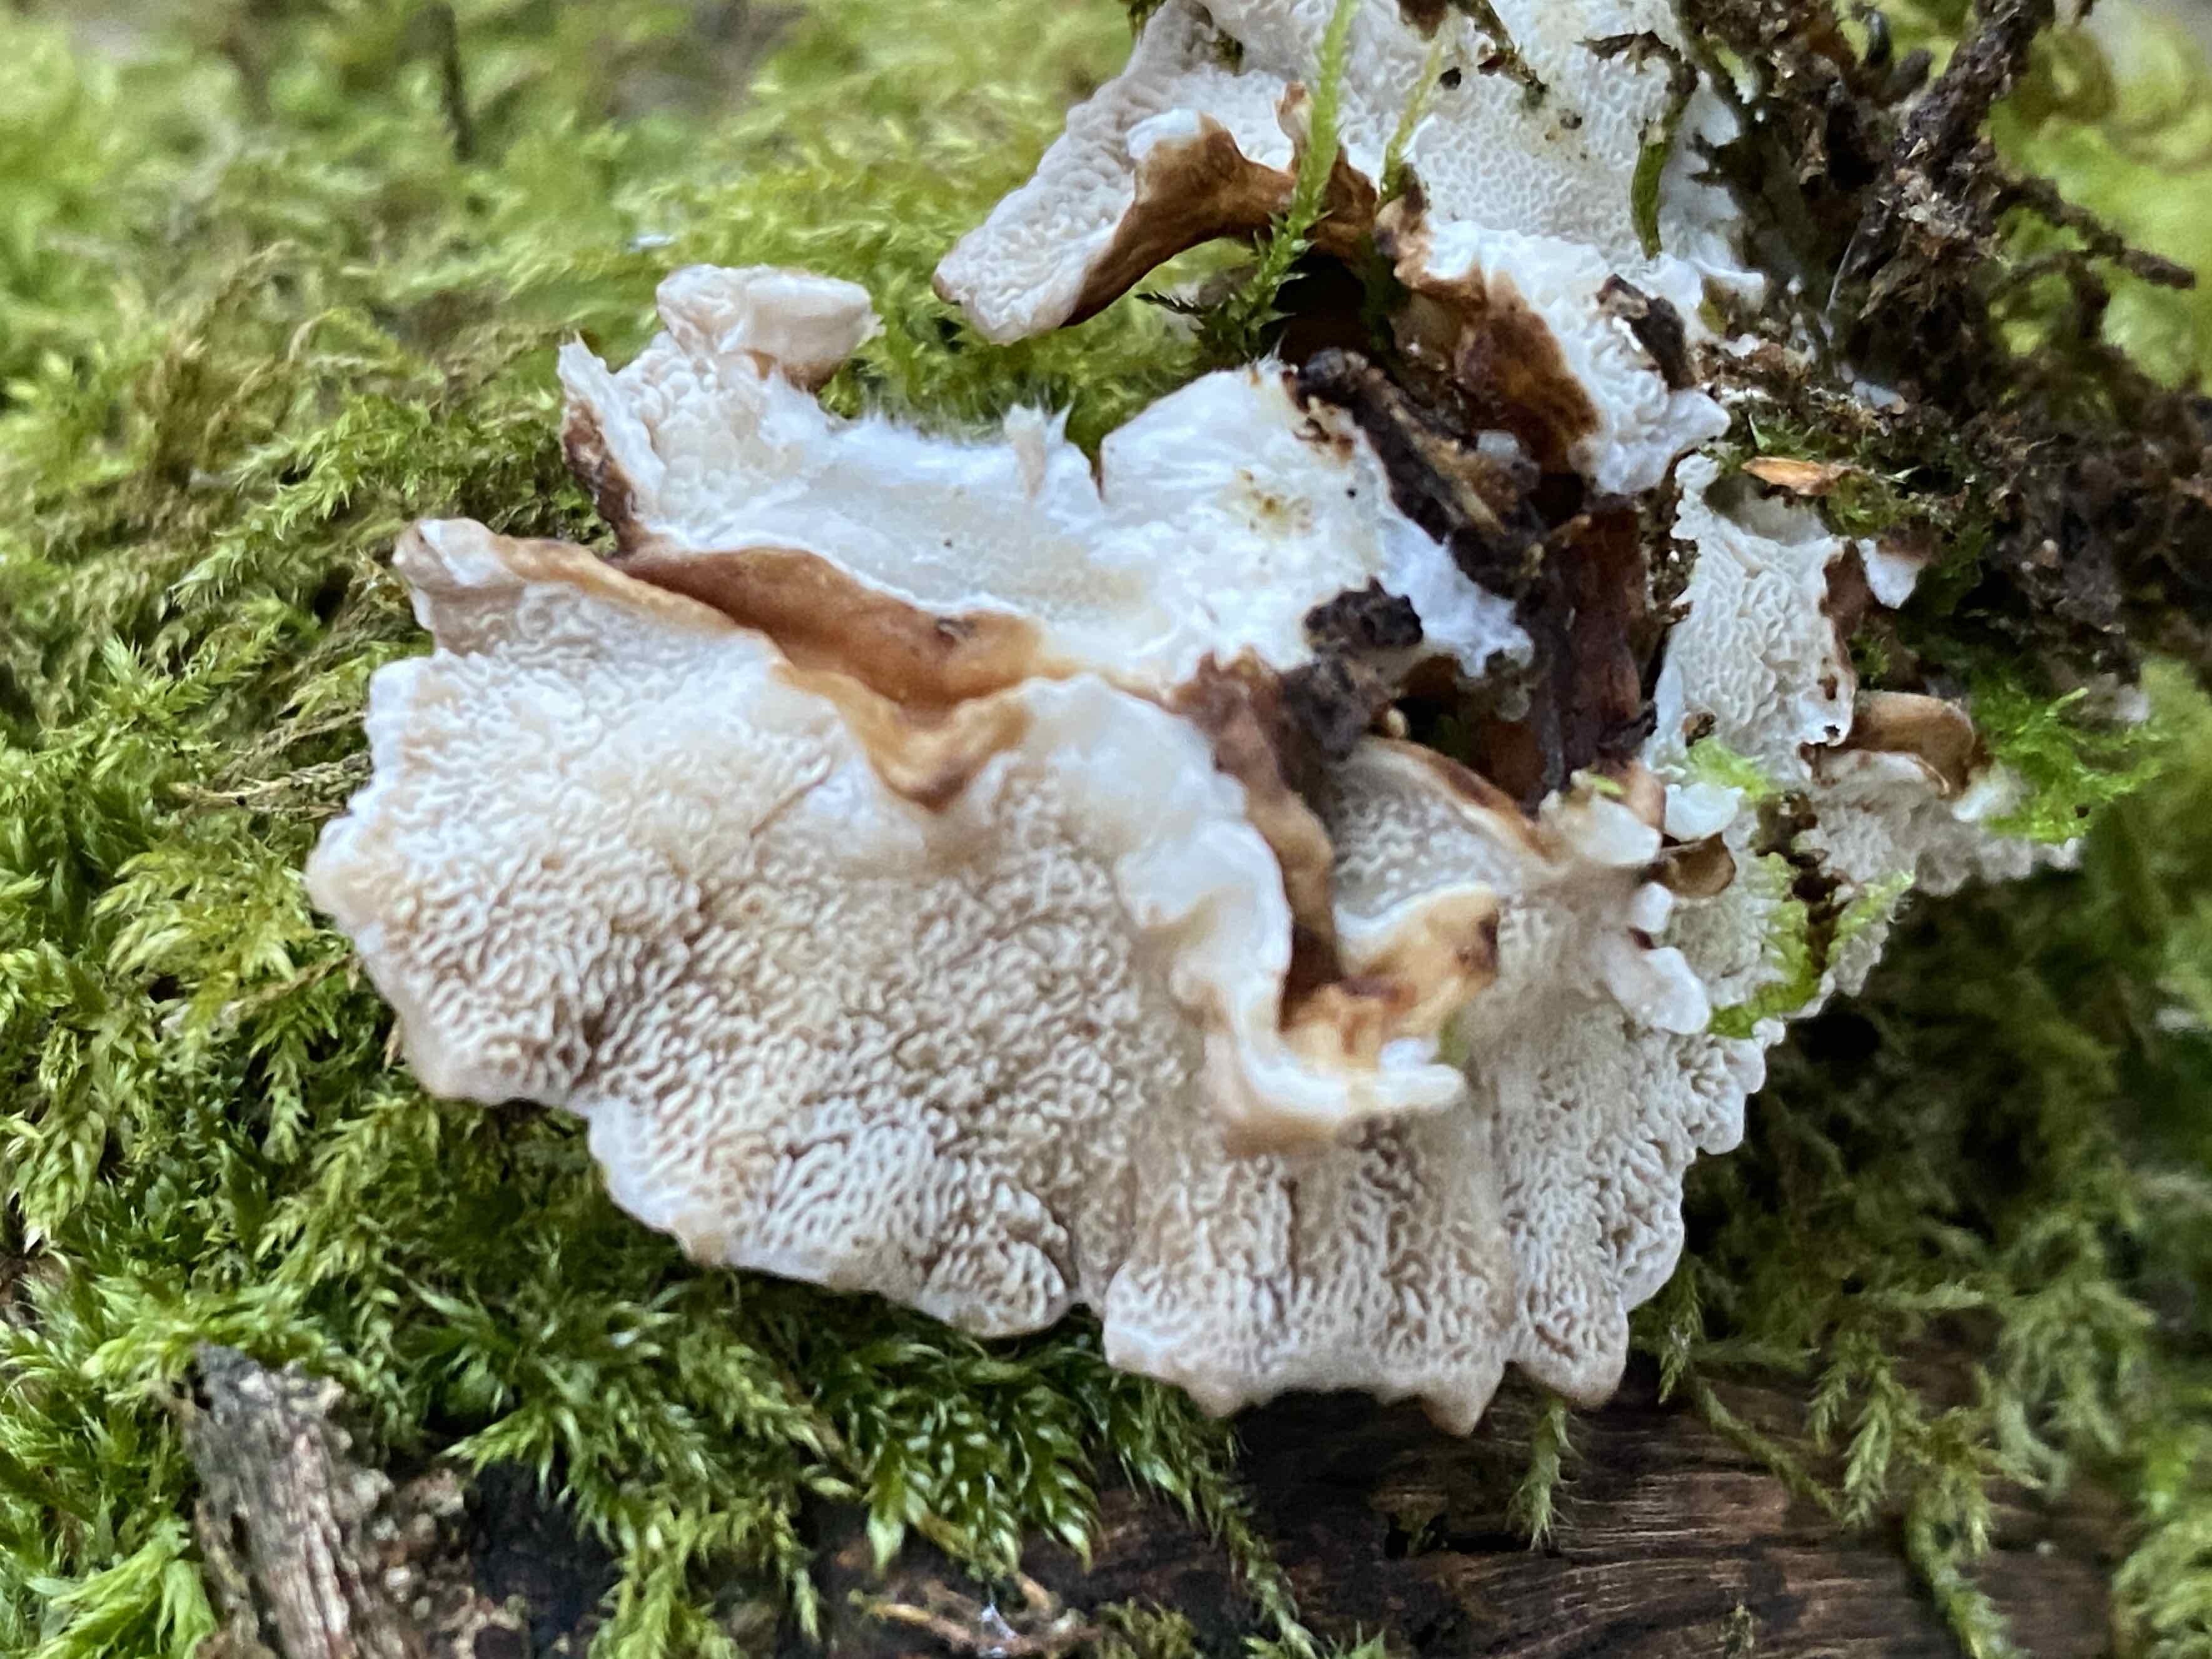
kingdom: Fungi
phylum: Basidiomycota
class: Agaricomycetes
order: Polyporales
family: Polyporaceae
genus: Trametes
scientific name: Trametes versicolor
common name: broget læderporesvamp
